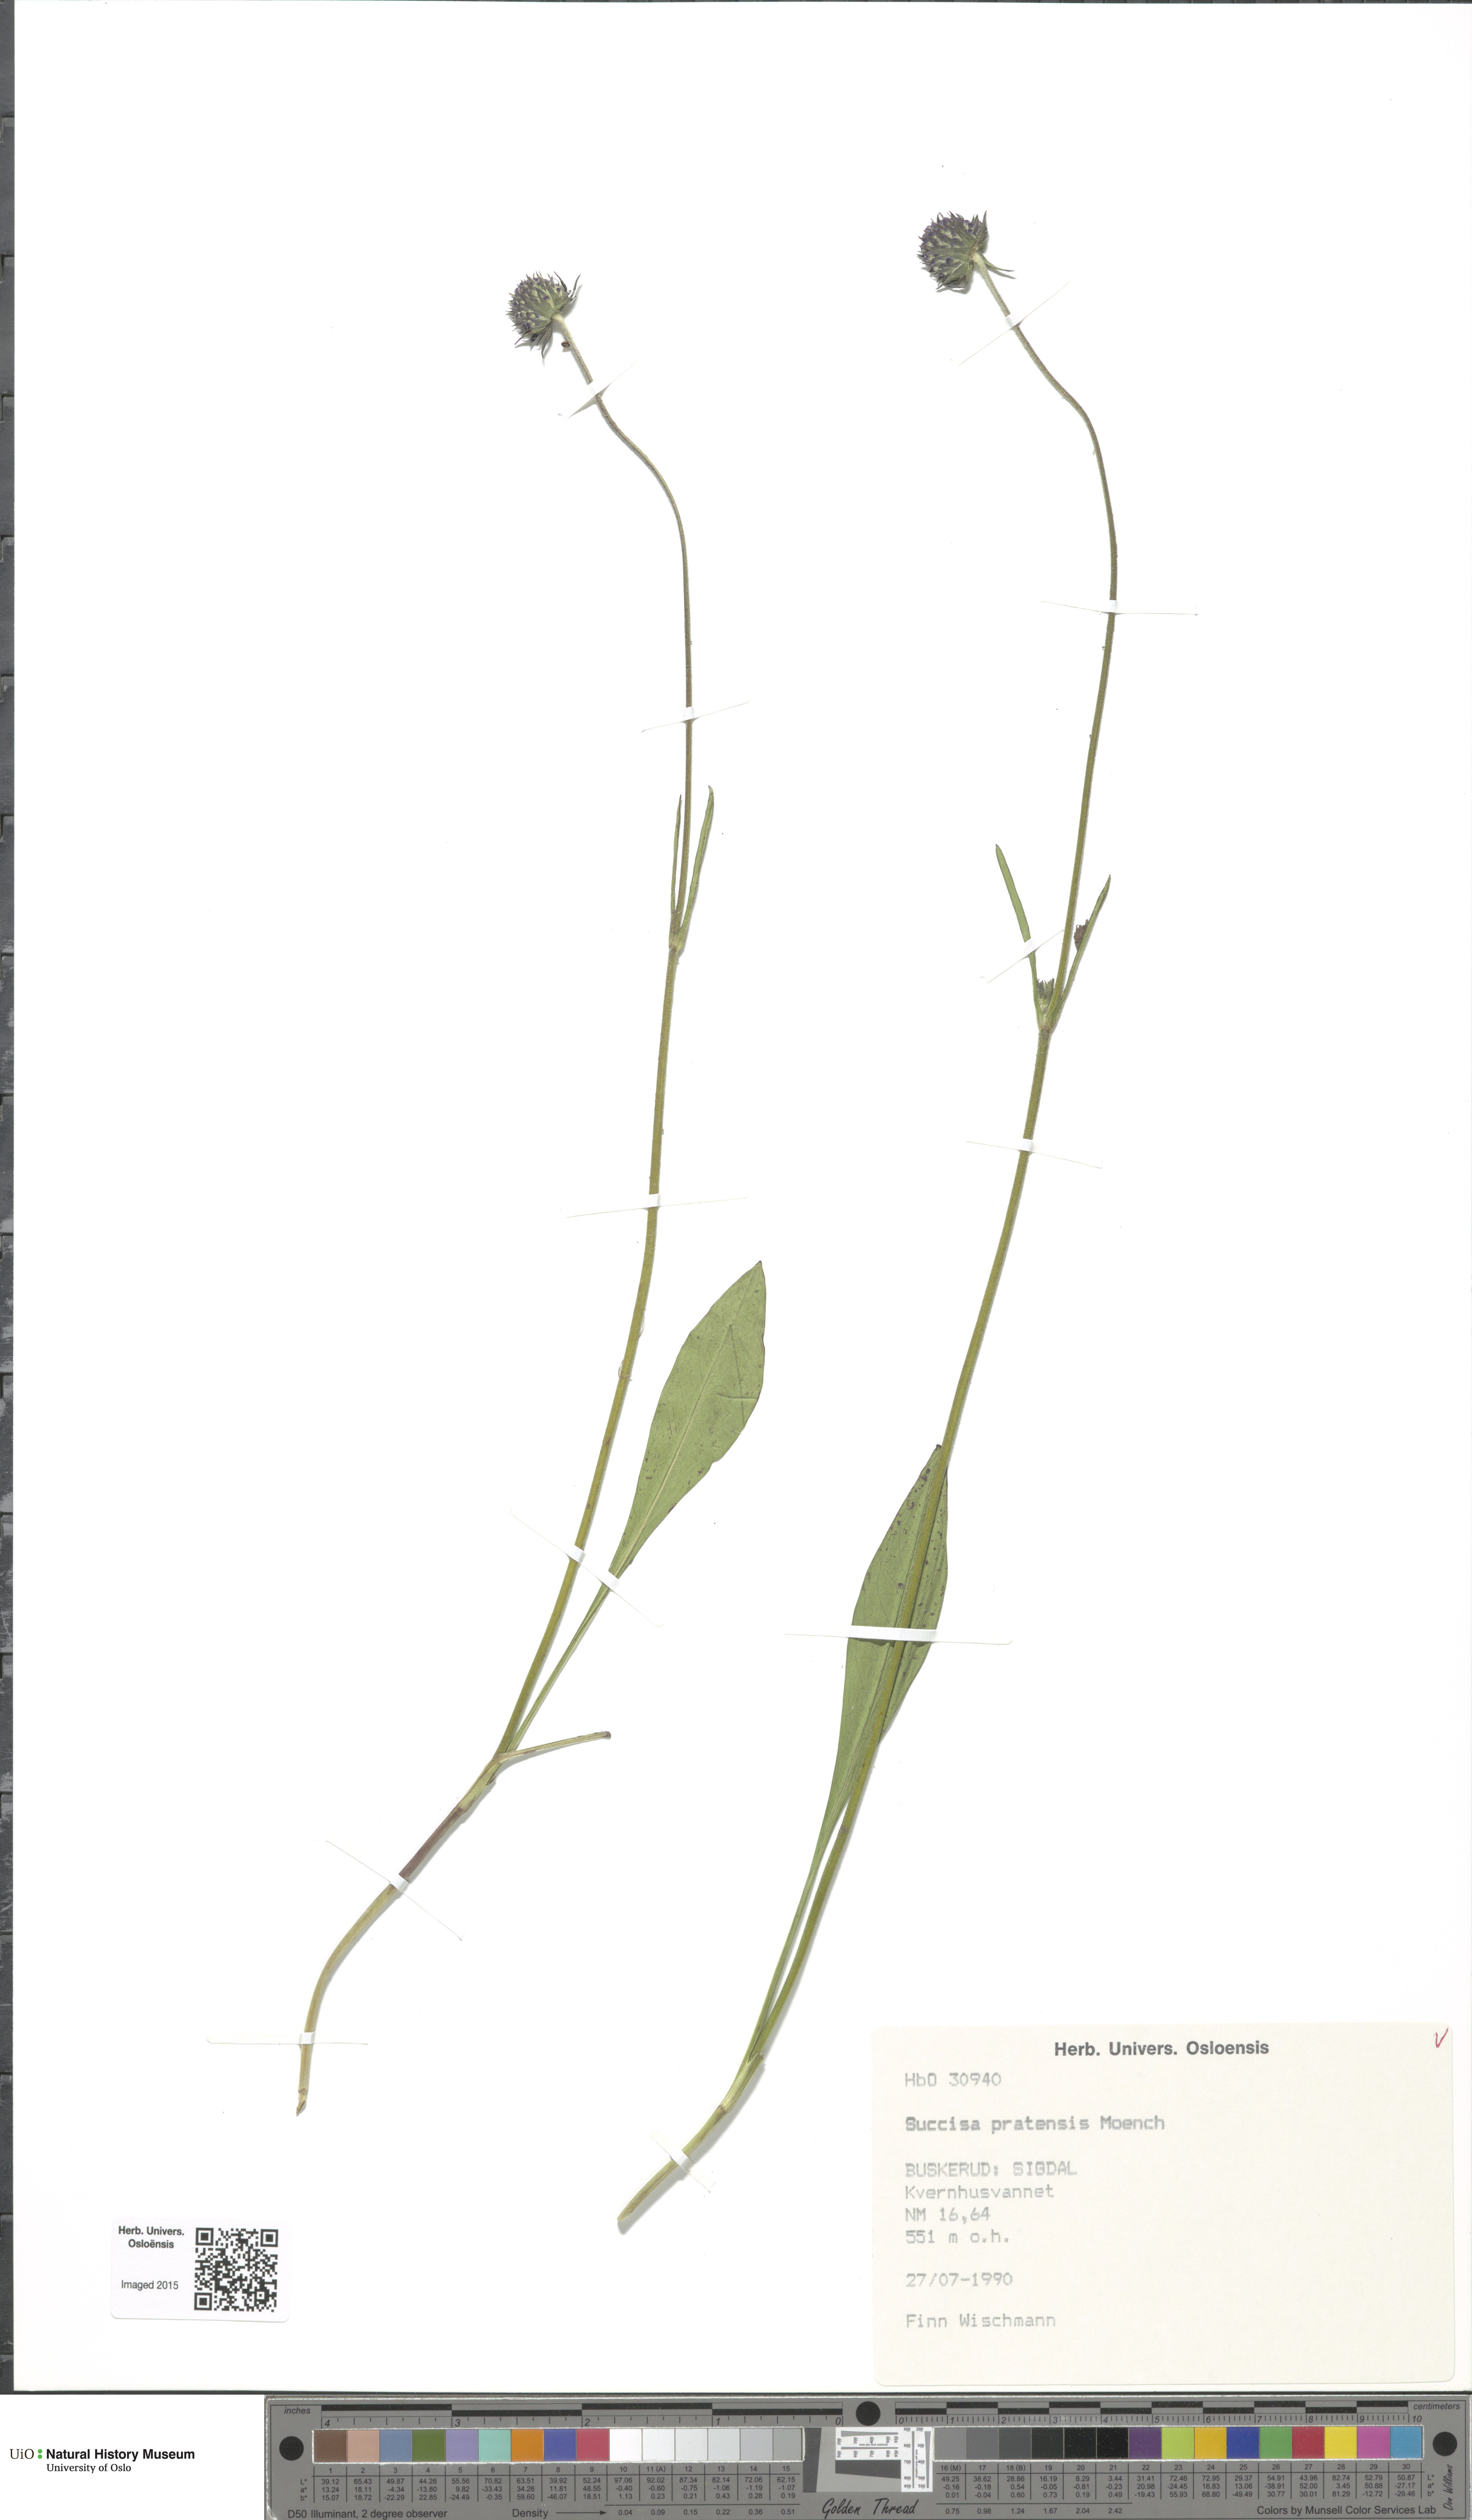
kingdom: Plantae
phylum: Tracheophyta
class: Magnoliopsida
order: Dipsacales
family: Caprifoliaceae
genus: Succisa
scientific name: Succisa pratensis
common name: Devil's-bit
